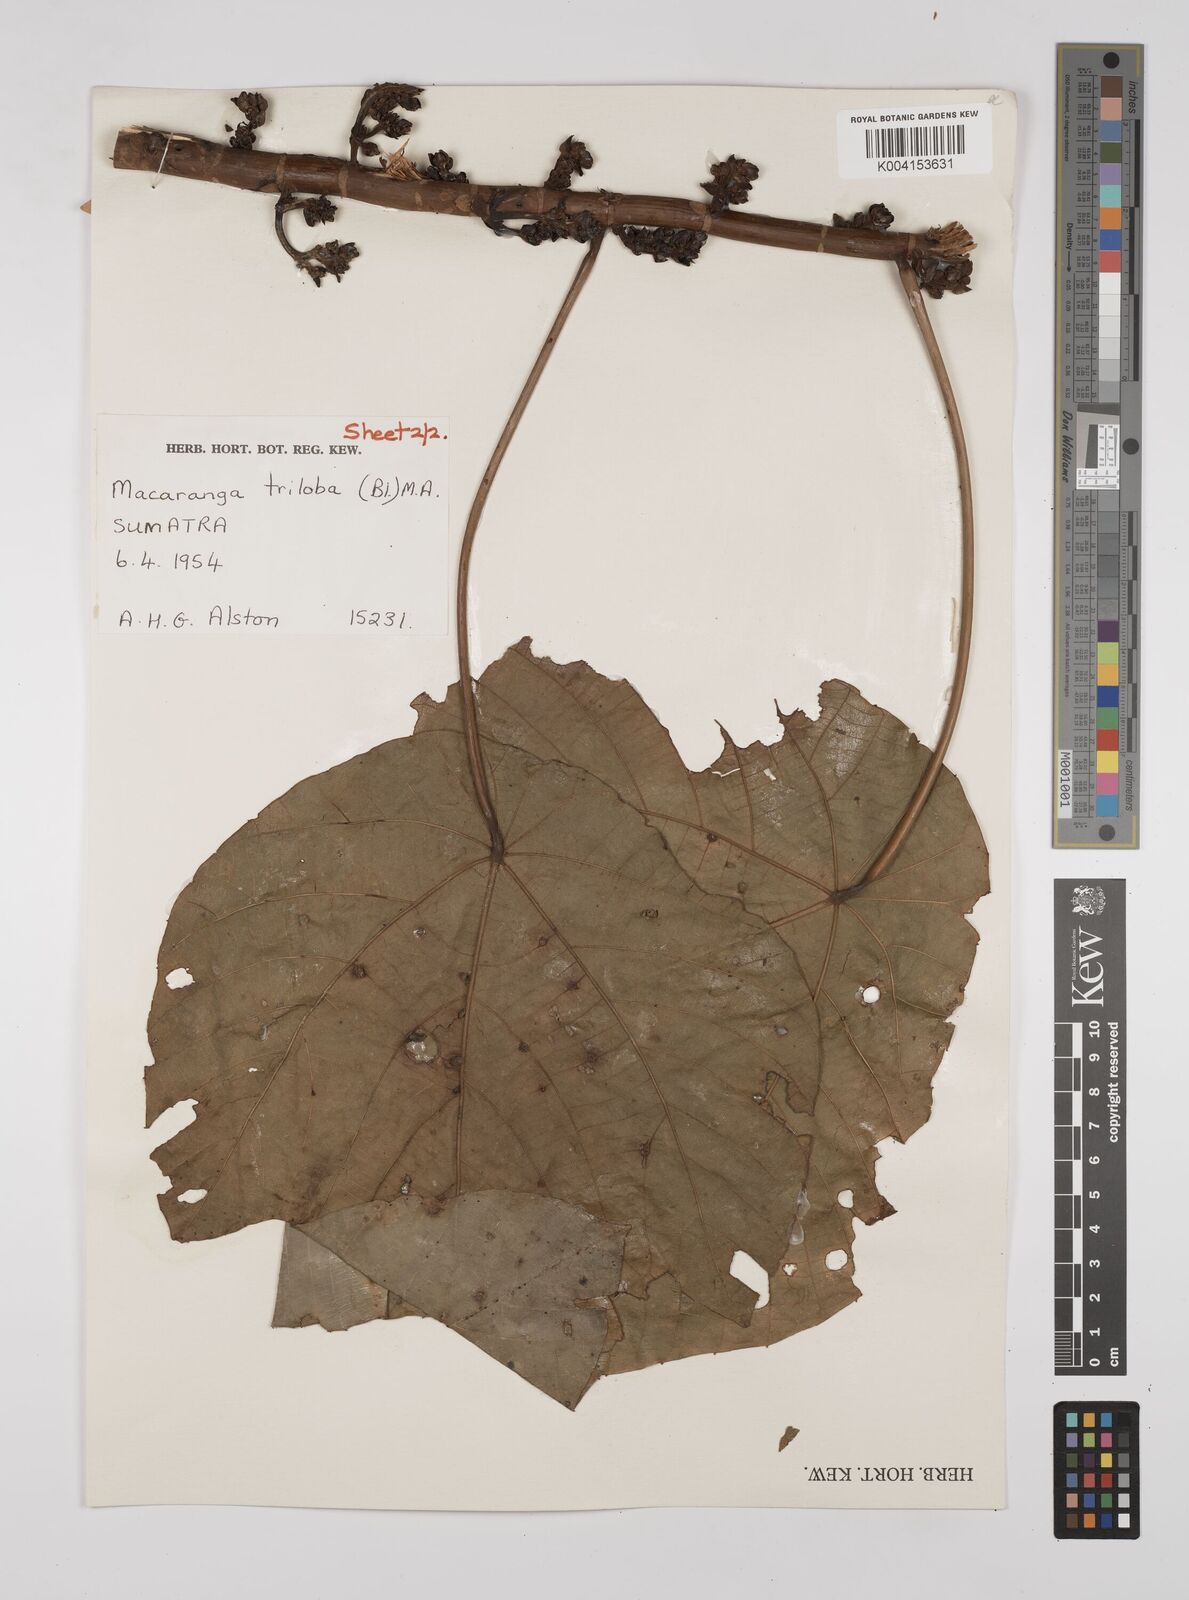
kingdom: Plantae
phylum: Tracheophyta
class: Magnoliopsida
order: Malpighiales
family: Euphorbiaceae
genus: Macaranga
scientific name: Macaranga triloba
